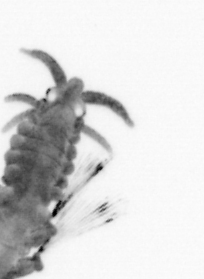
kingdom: Animalia
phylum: Annelida
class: Polychaeta
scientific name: Polychaeta
